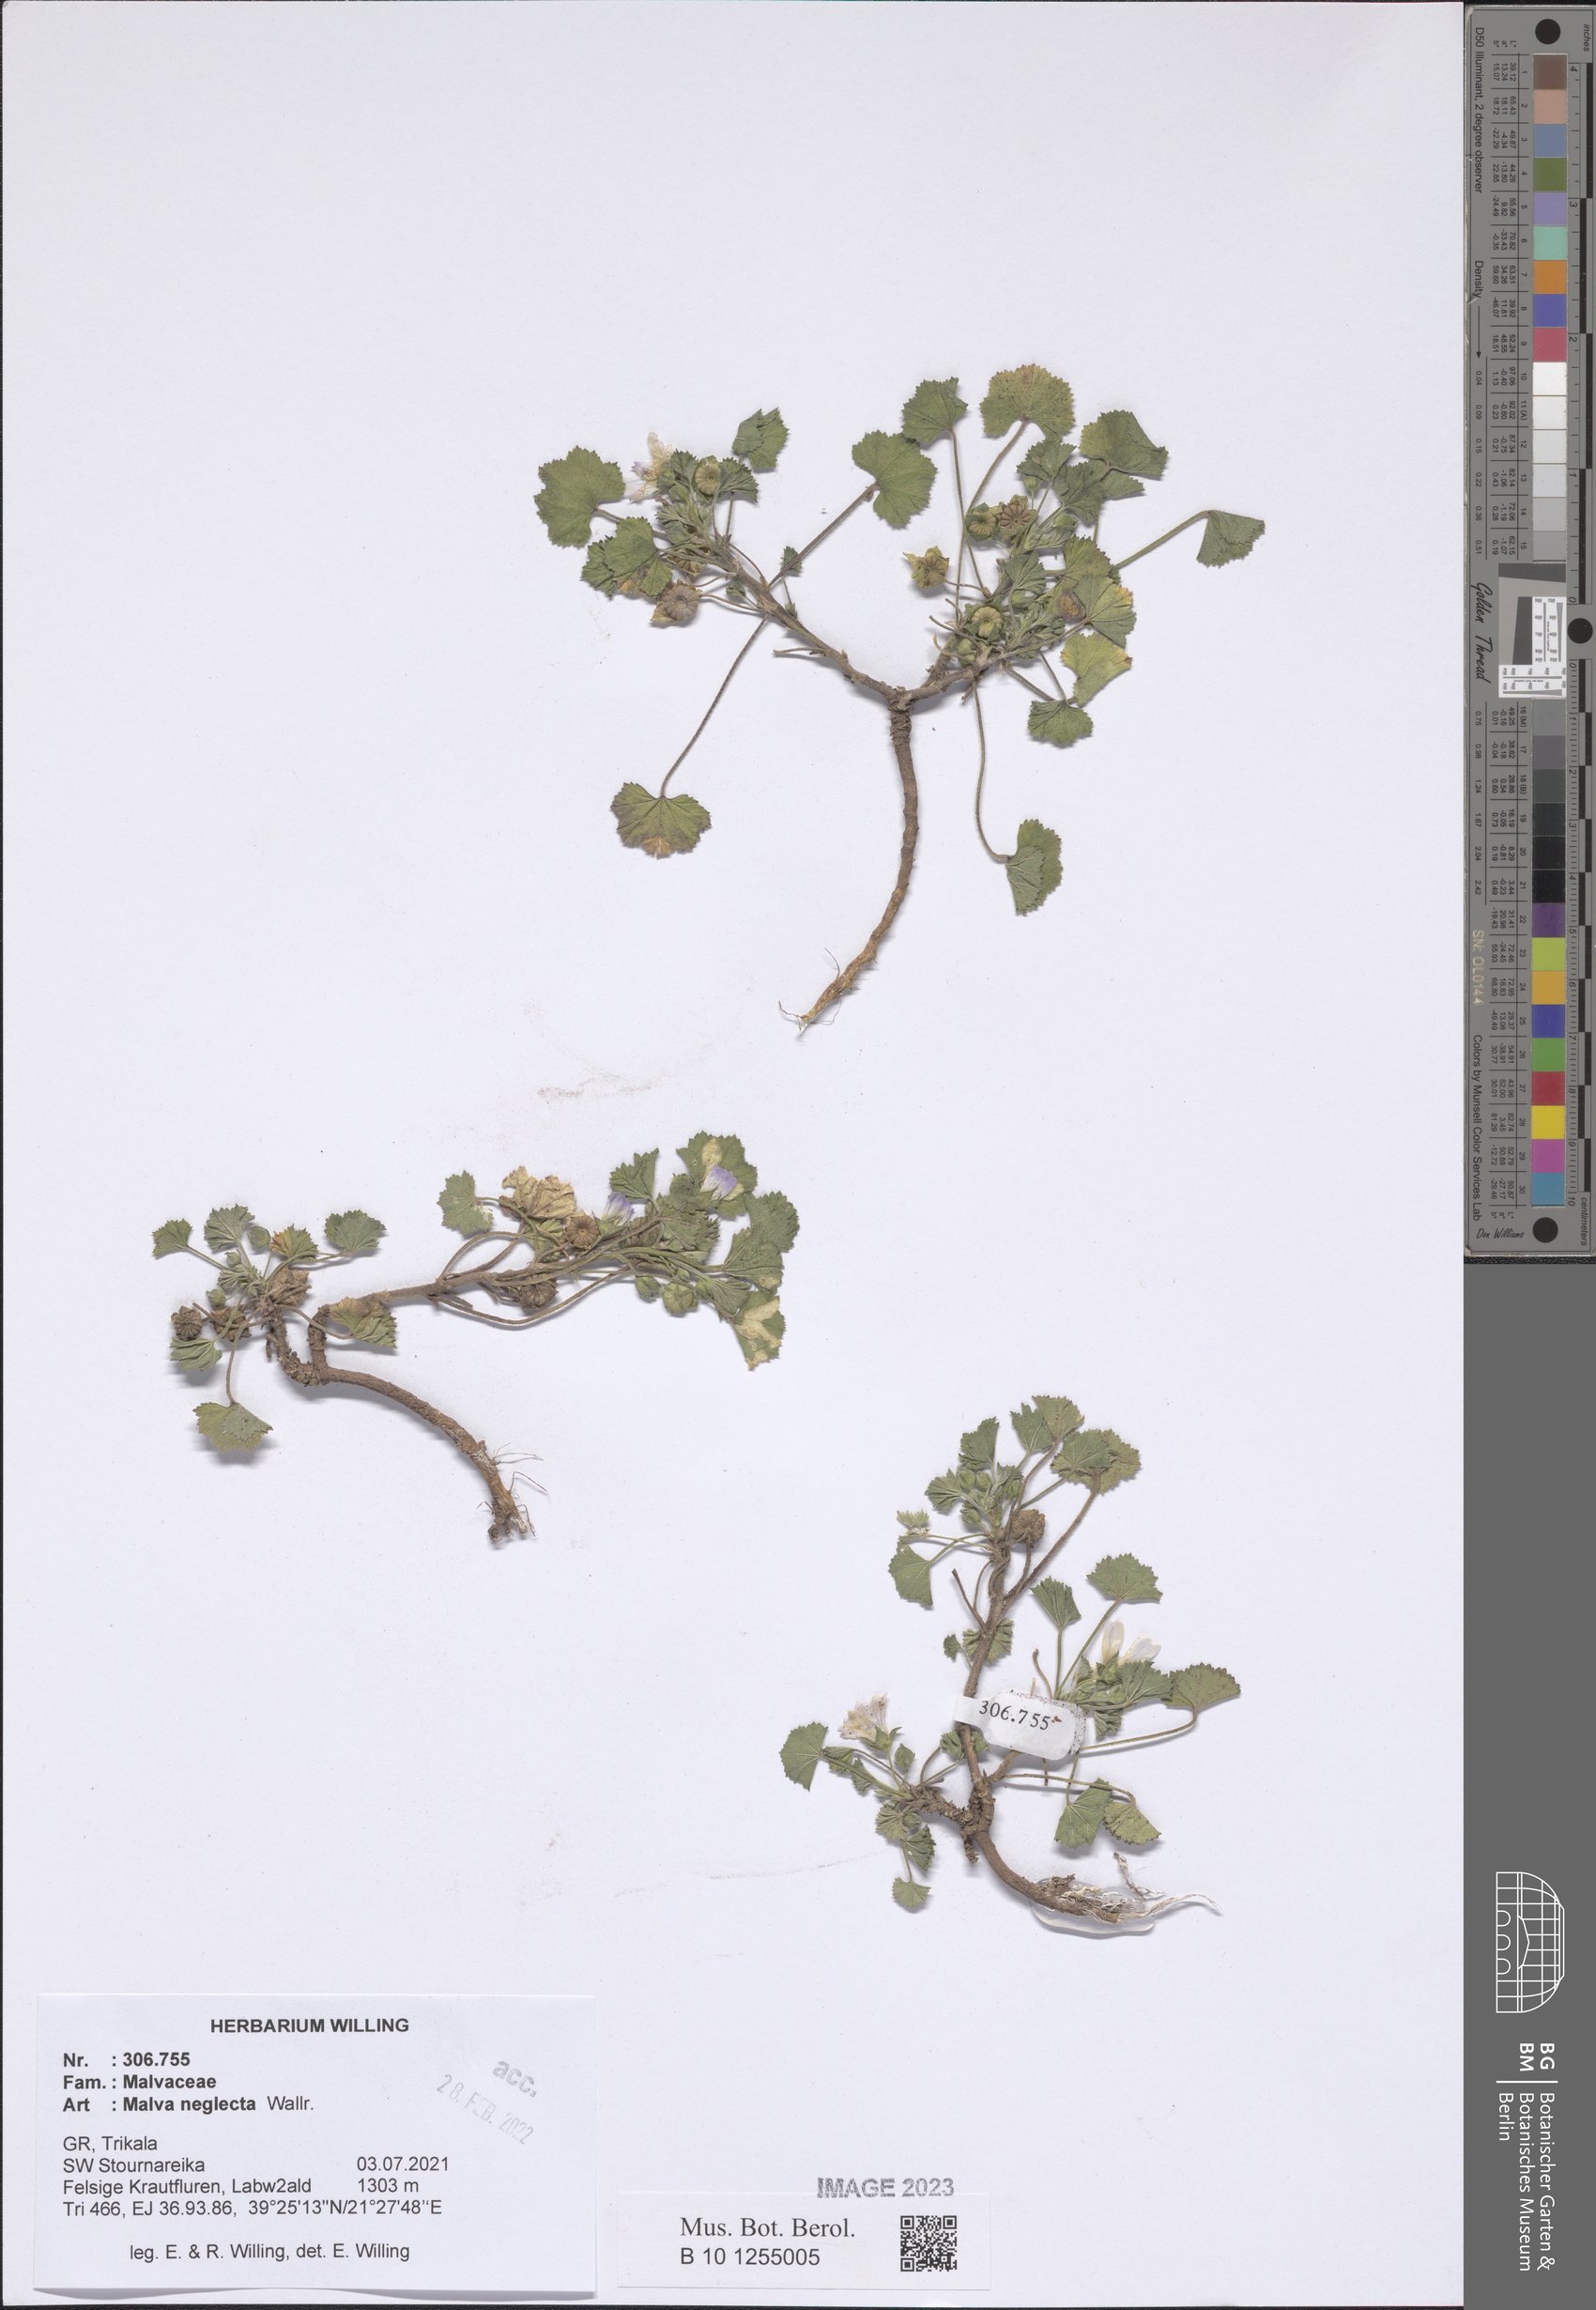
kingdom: Plantae
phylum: Tracheophyta
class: Magnoliopsida
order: Malvales
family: Malvaceae
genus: Malva
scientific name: Malva neglecta
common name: Common mallow
